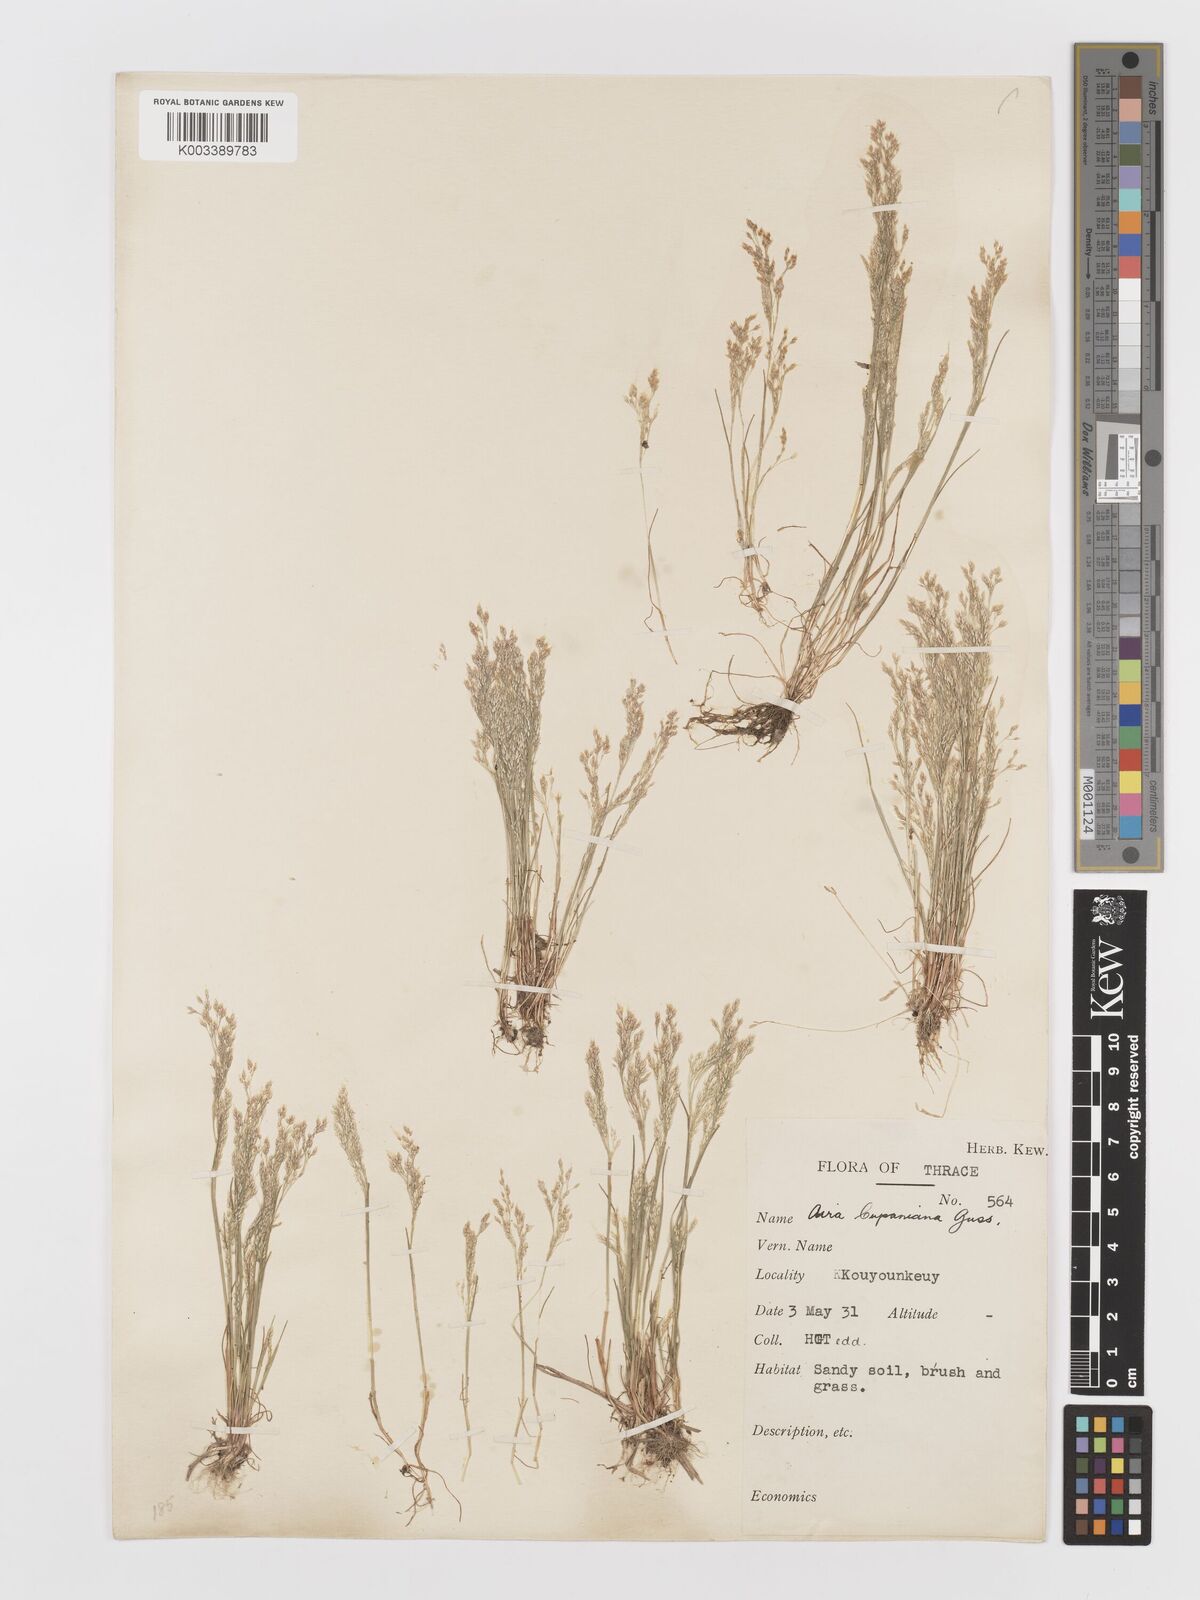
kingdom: Plantae
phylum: Tracheophyta
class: Liliopsida
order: Poales
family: Poaceae
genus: Aira
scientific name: Aira cupaniana
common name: Silver hairgrass
